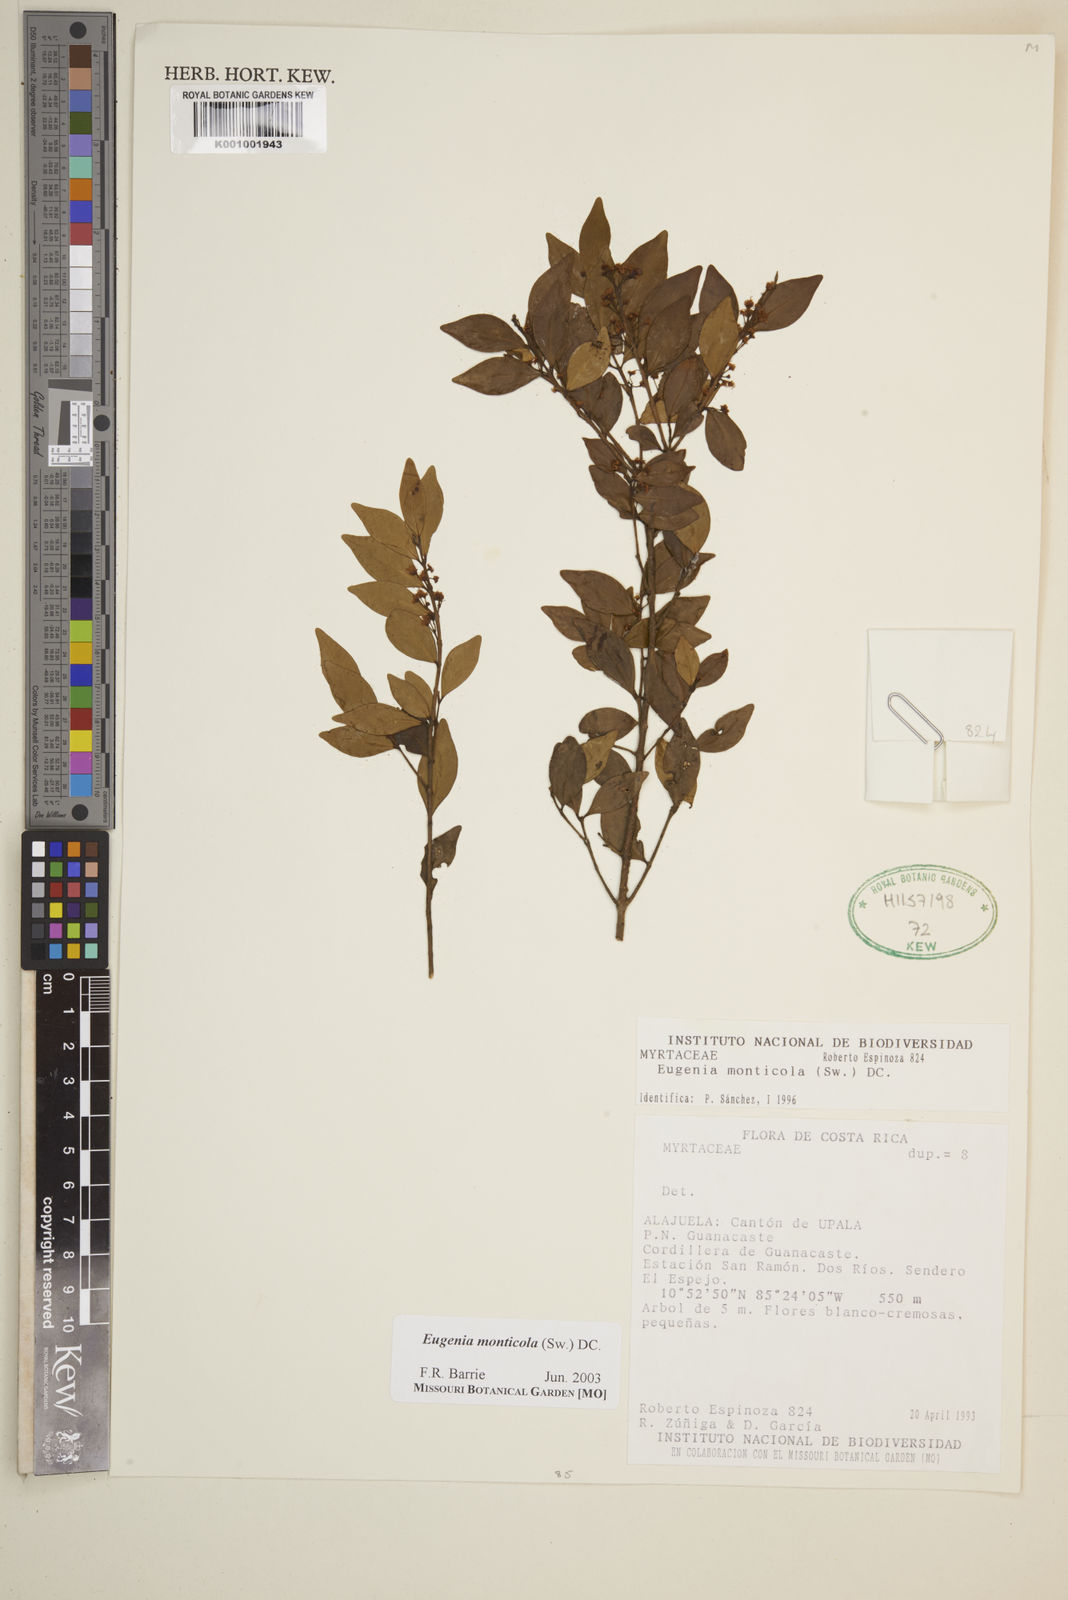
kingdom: Plantae
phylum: Tracheophyta
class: Magnoliopsida
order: Myrtales
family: Myrtaceae
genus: Eugenia
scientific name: Eugenia monticola
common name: Birds berry
